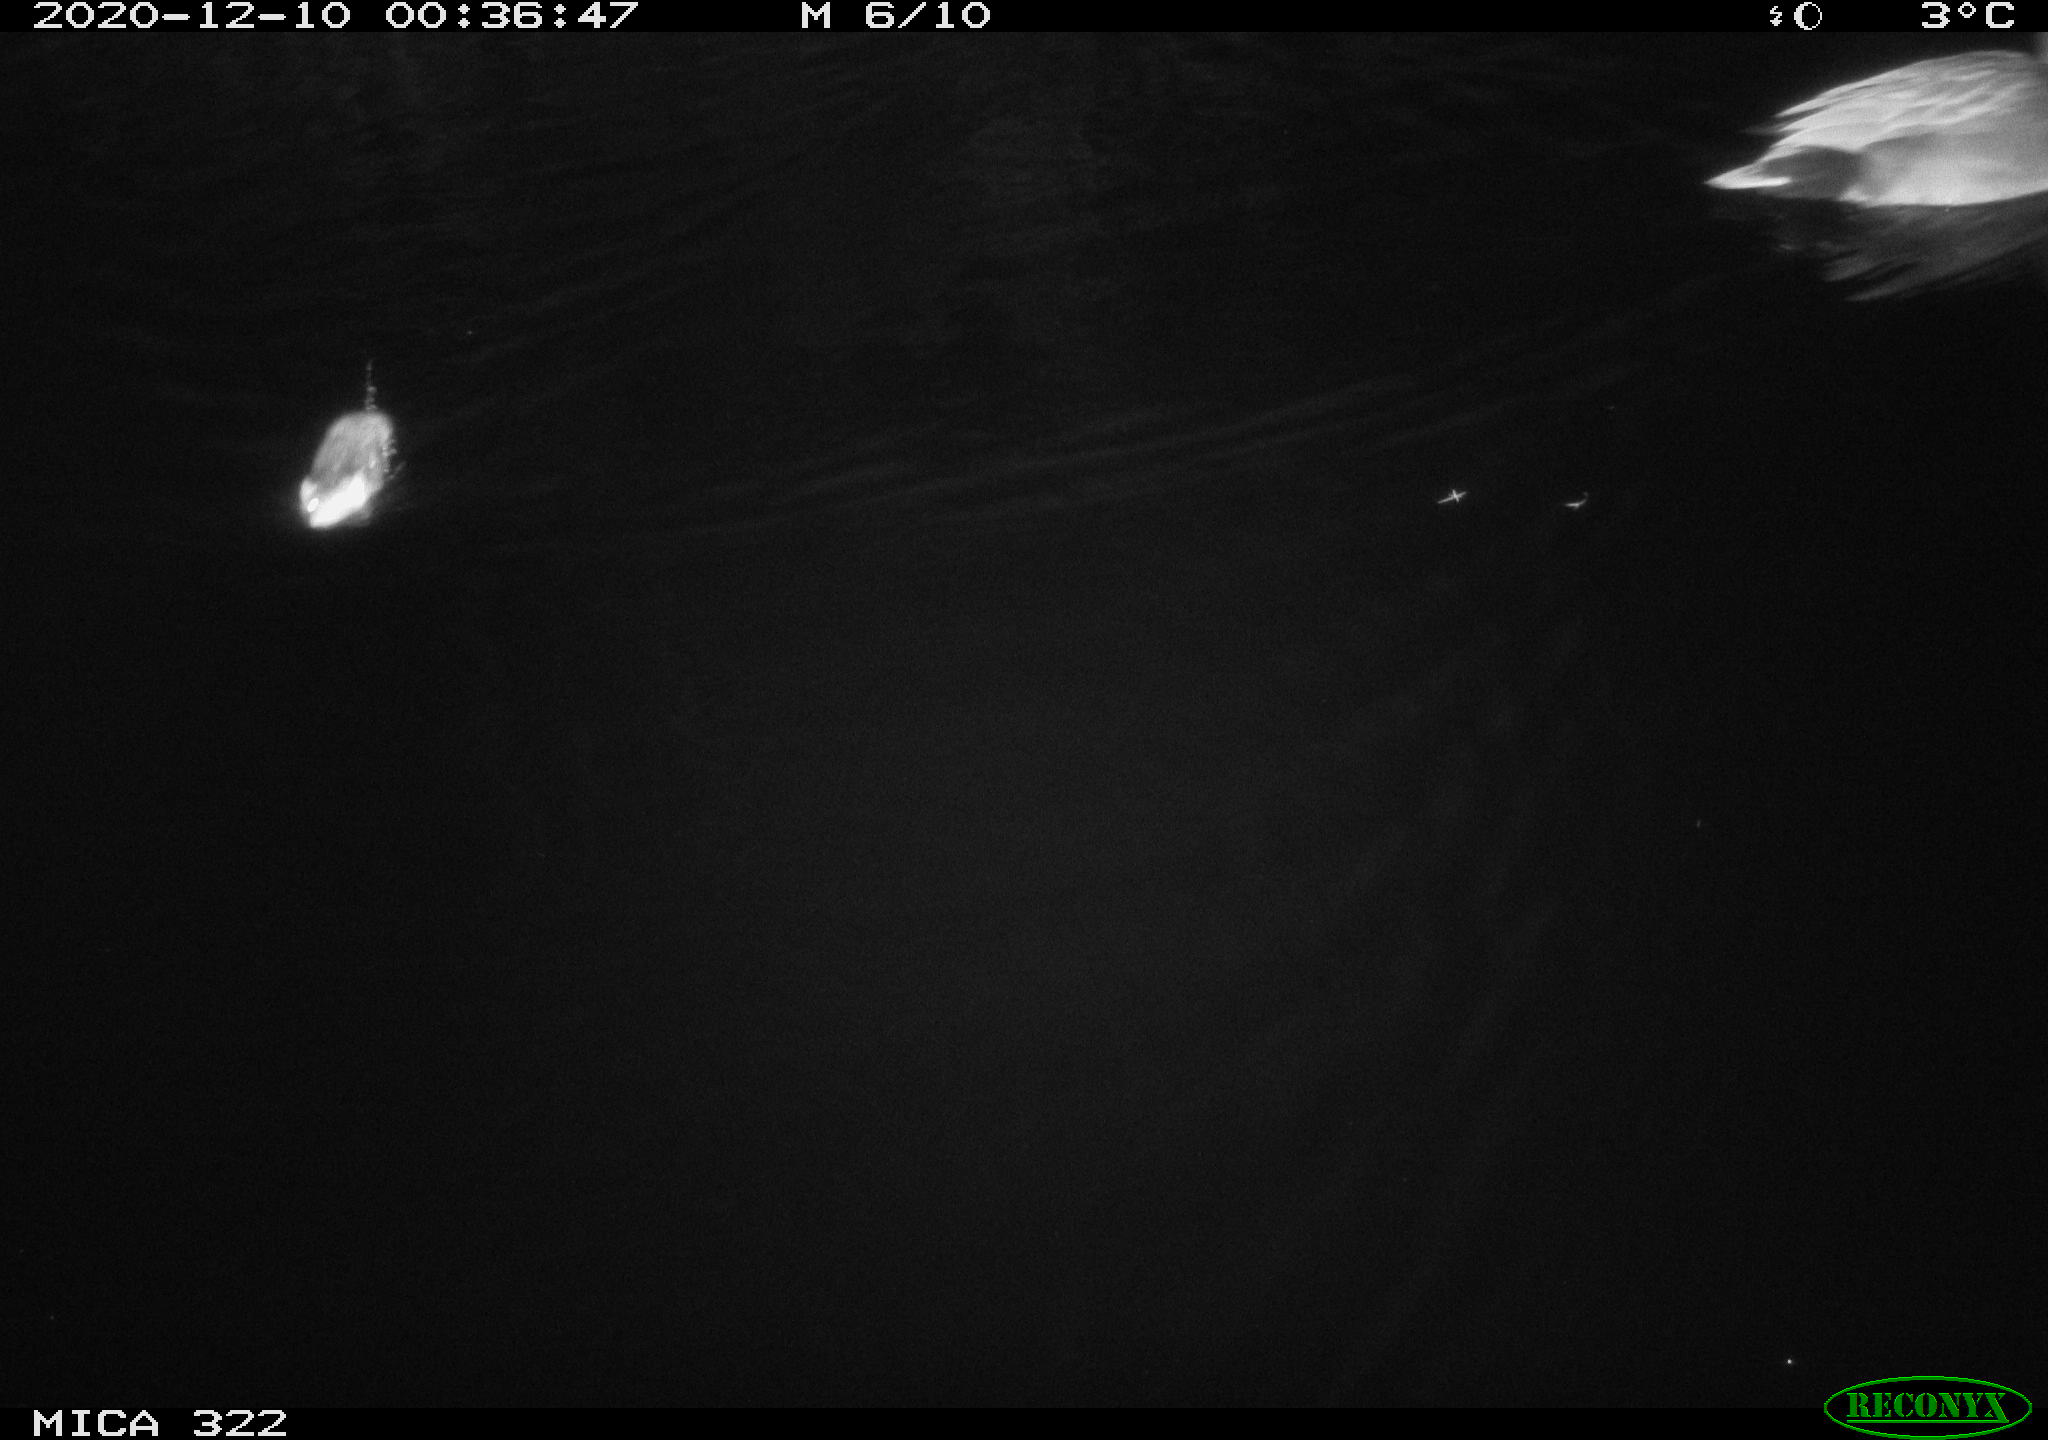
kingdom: Animalia
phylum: Chordata
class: Aves
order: Anseriformes
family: Anatidae
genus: Mareca
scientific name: Mareca strepera
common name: Gadwall
